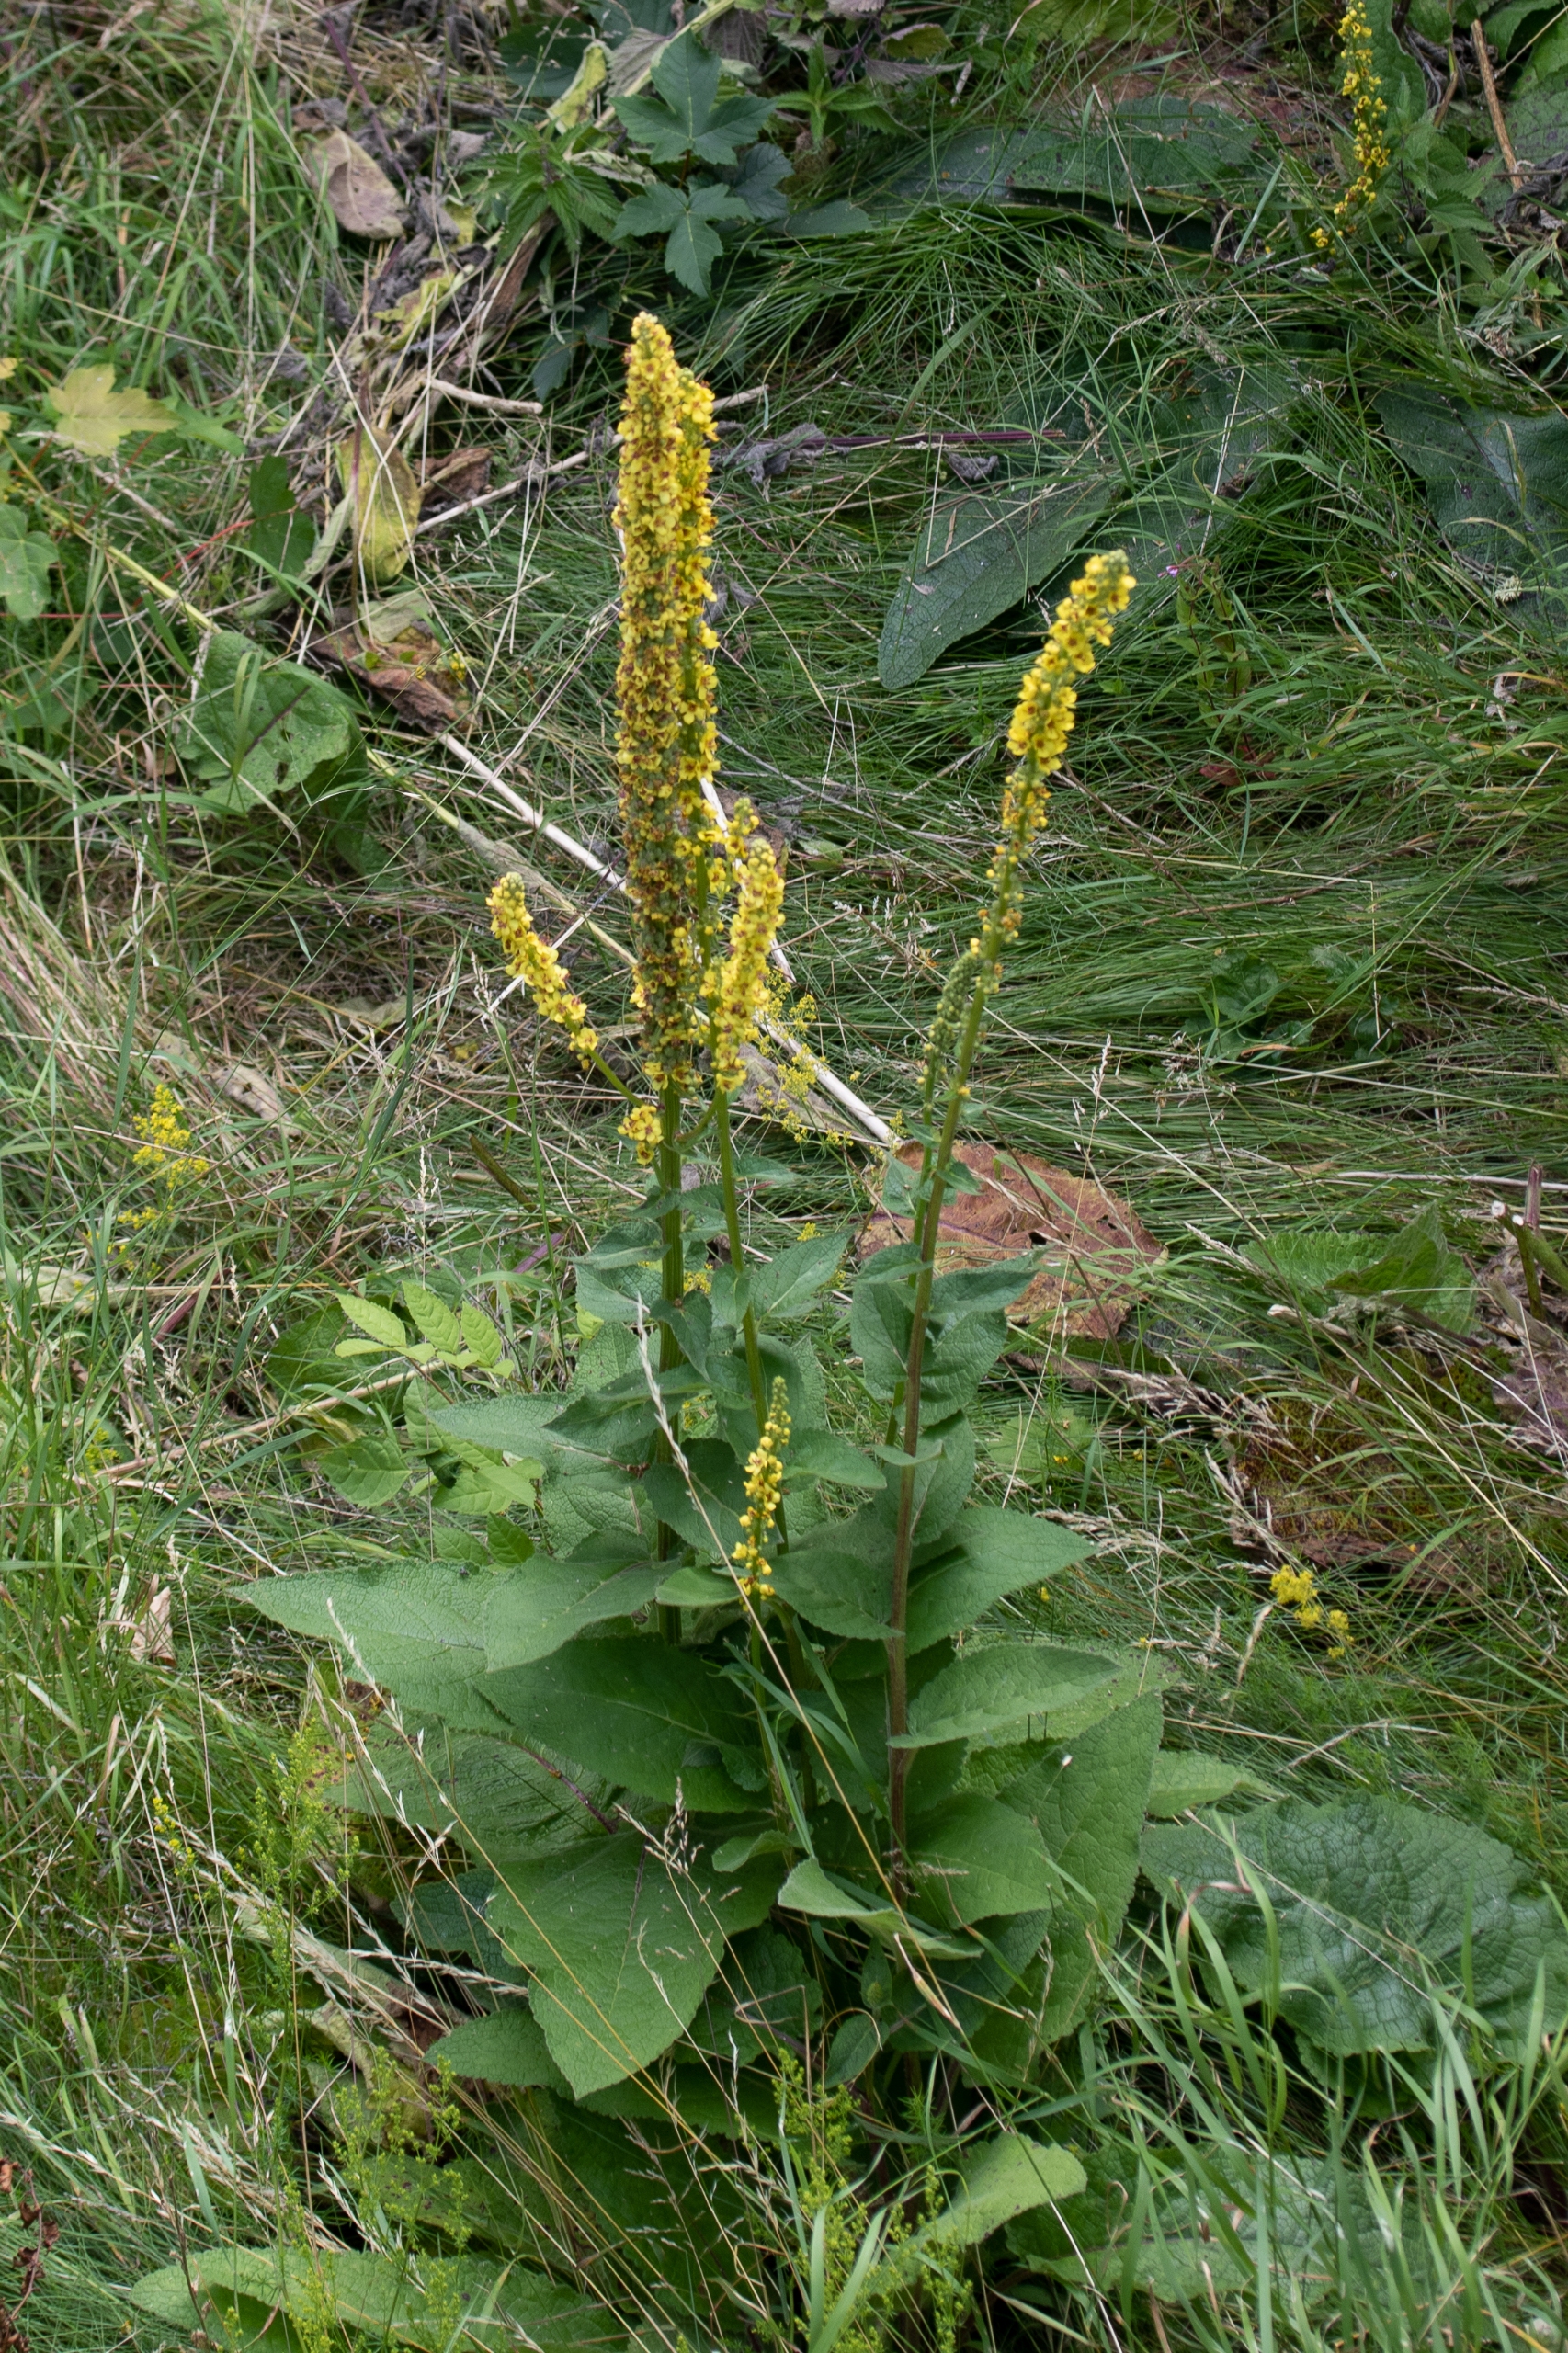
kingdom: Plantae
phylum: Tracheophyta
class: Magnoliopsida
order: Lamiales
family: Scrophulariaceae
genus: Verbascum
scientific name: Verbascum nigrum
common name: Mørk kongelys
